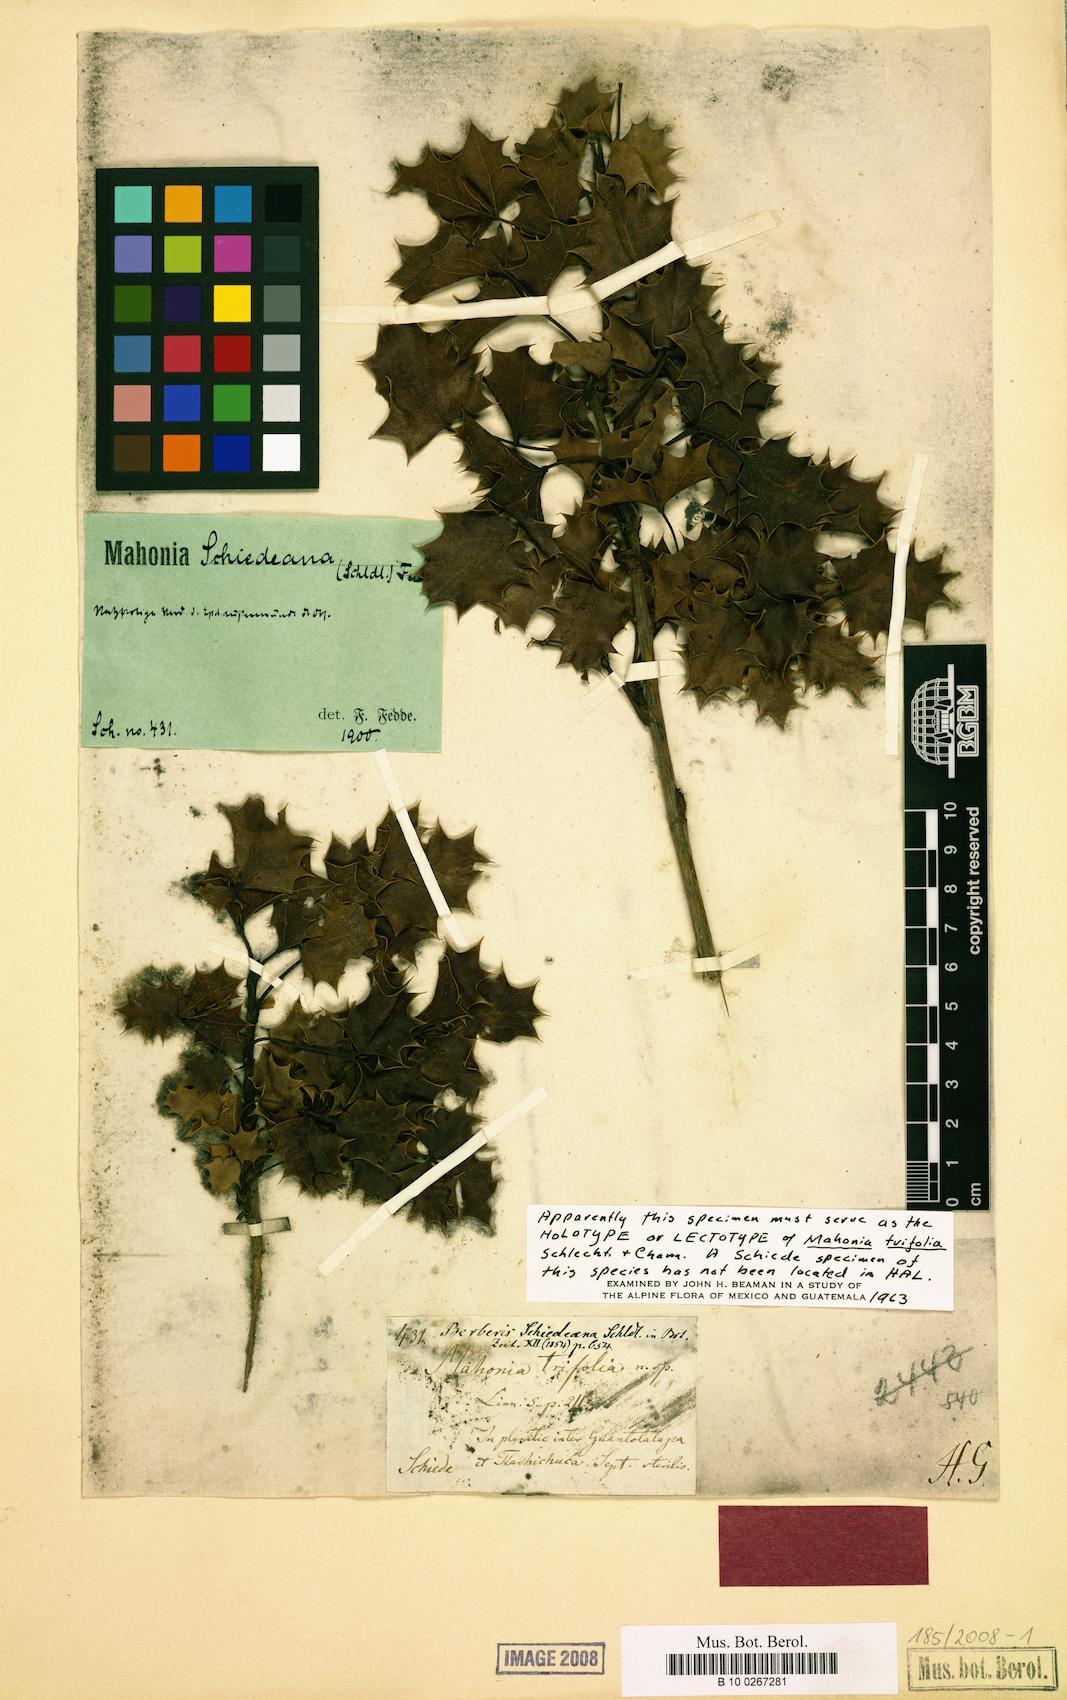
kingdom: Plantae
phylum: Tracheophyta
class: Magnoliopsida
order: Ranunculales
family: Berberidaceae
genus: Mahonia
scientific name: Mahonia trifolia
